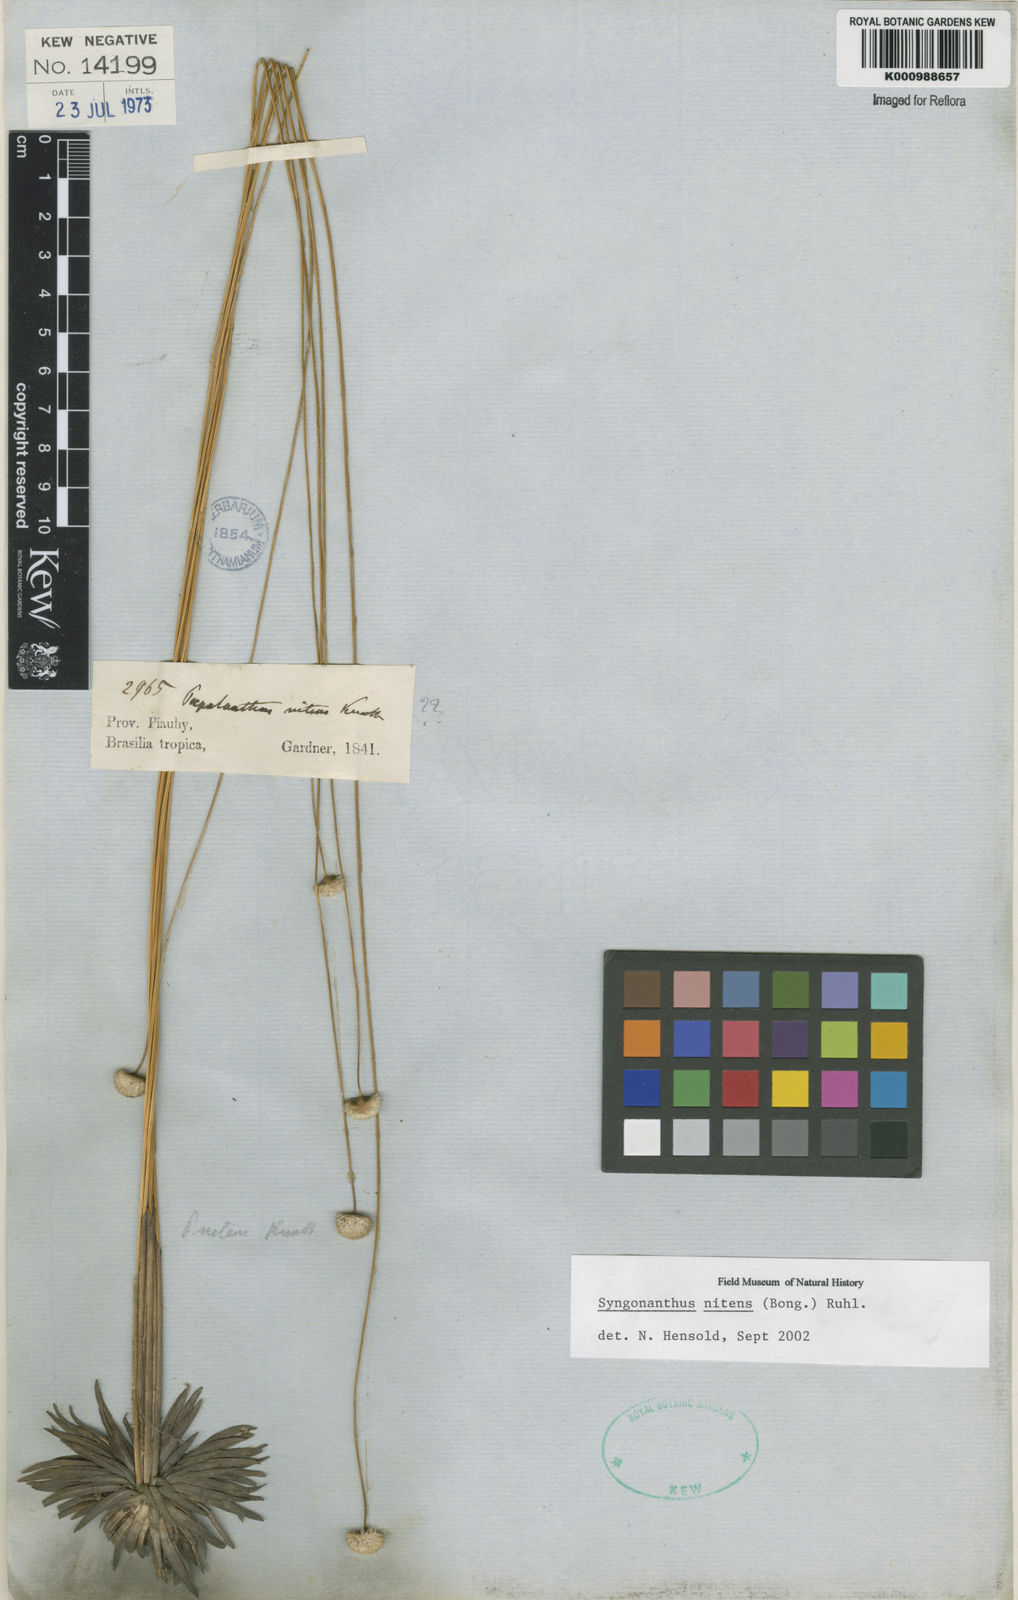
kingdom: Plantae
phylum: Tracheophyta
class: Liliopsida
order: Poales
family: Eriocaulaceae
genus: Syngonanthus
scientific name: Syngonanthus nitens
